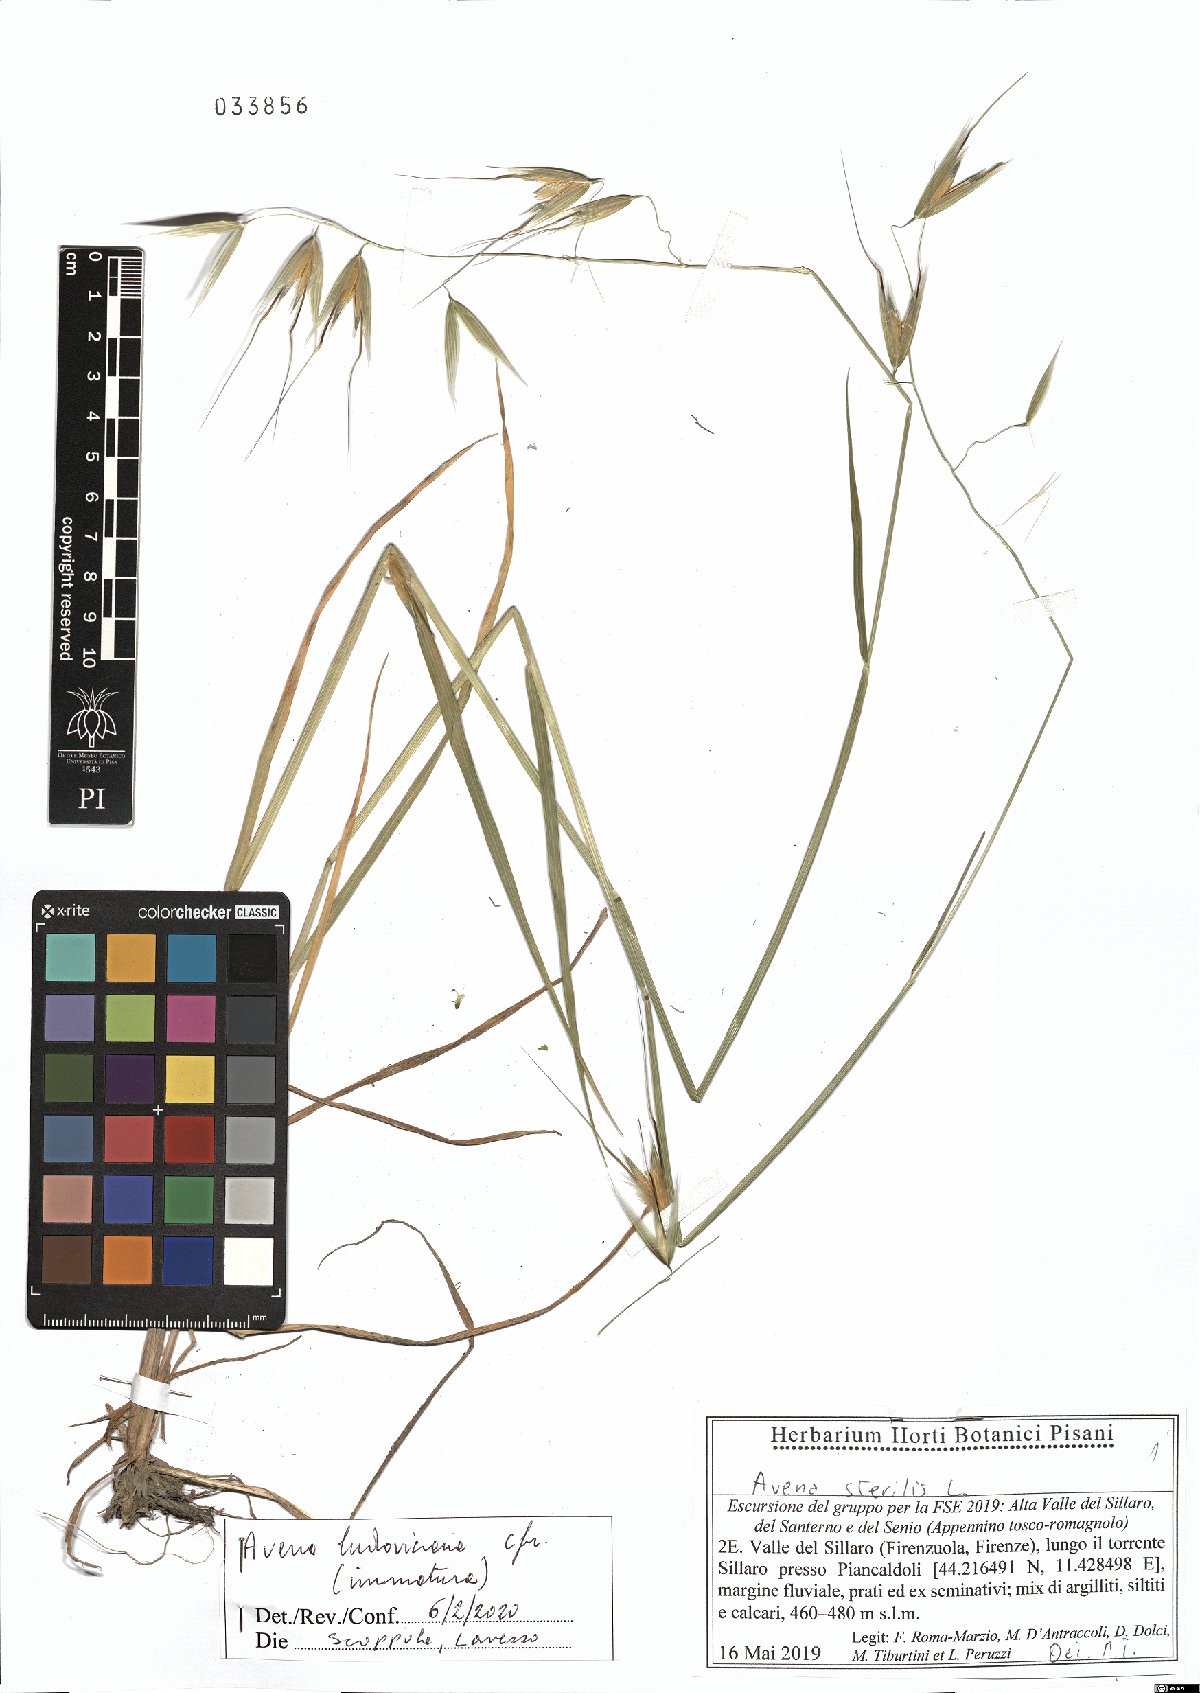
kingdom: Plantae
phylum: Tracheophyta
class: Liliopsida
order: Poales
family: Poaceae
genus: Avena
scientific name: Avena sterilis
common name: Animated oat
